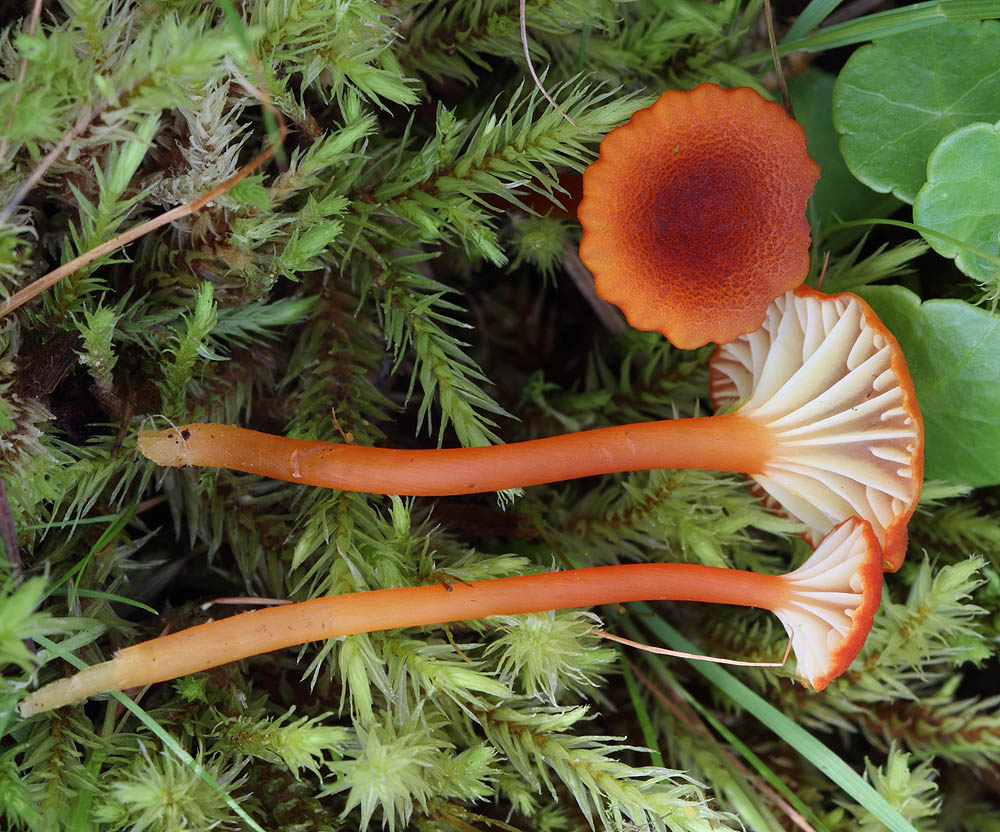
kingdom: Fungi
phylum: Basidiomycota
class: Agaricomycetes
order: Agaricales
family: Hygrophoraceae
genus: Hygrocybe
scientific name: Hygrocybe coccineocrenata
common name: tørvemos-vokshat
